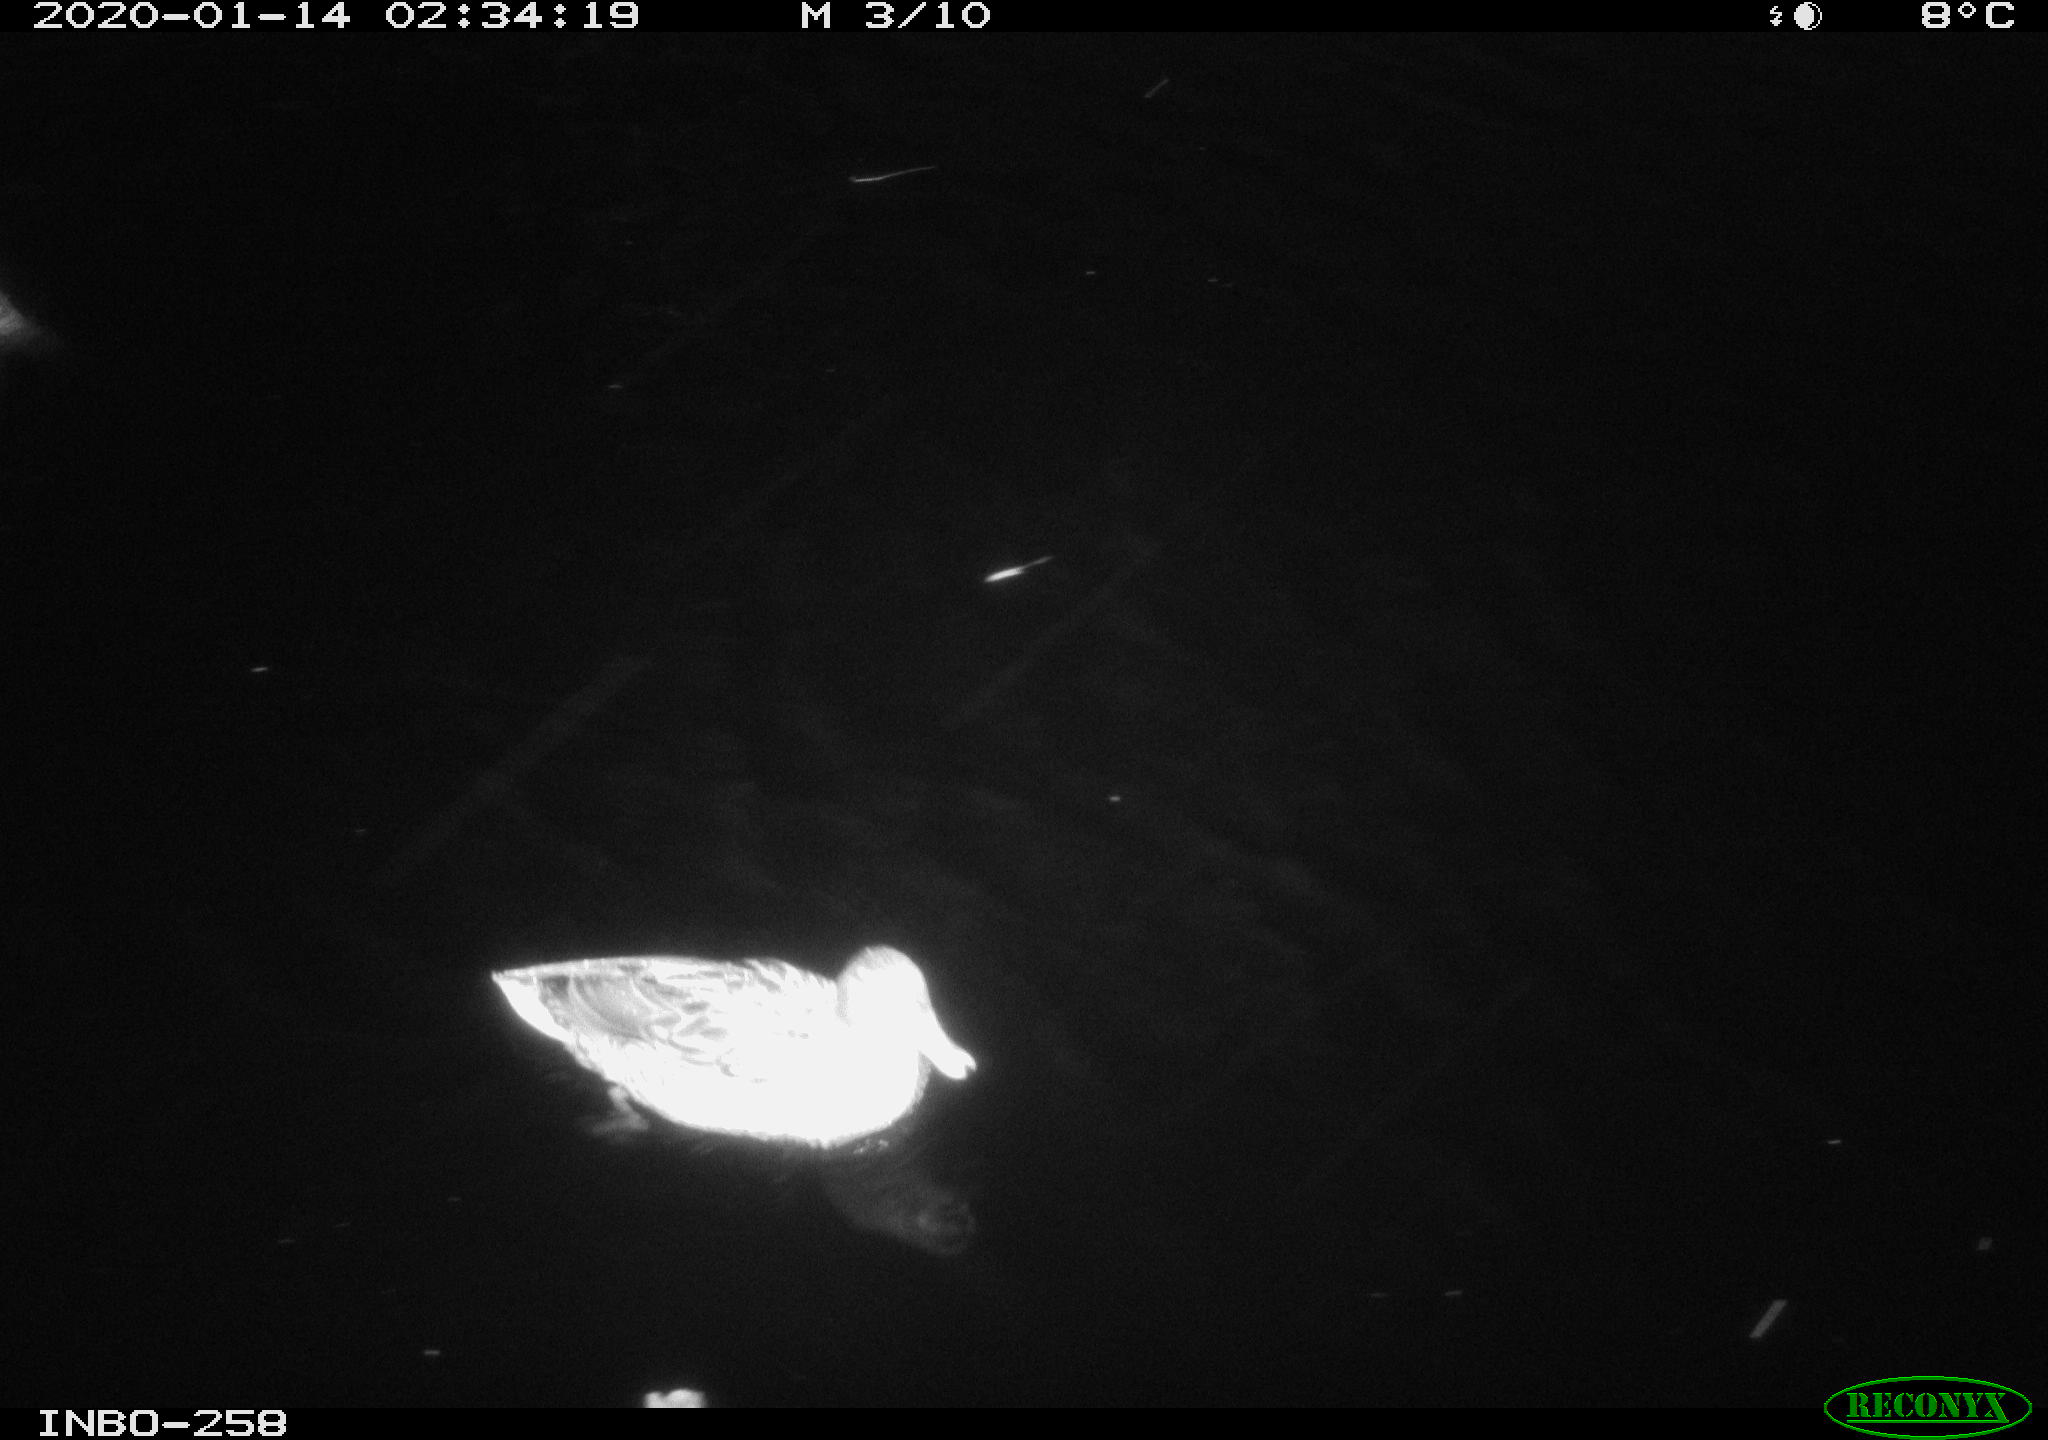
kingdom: Animalia
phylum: Chordata
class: Aves
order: Anseriformes
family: Anatidae
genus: Anas
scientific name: Anas platyrhynchos
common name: Mallard
